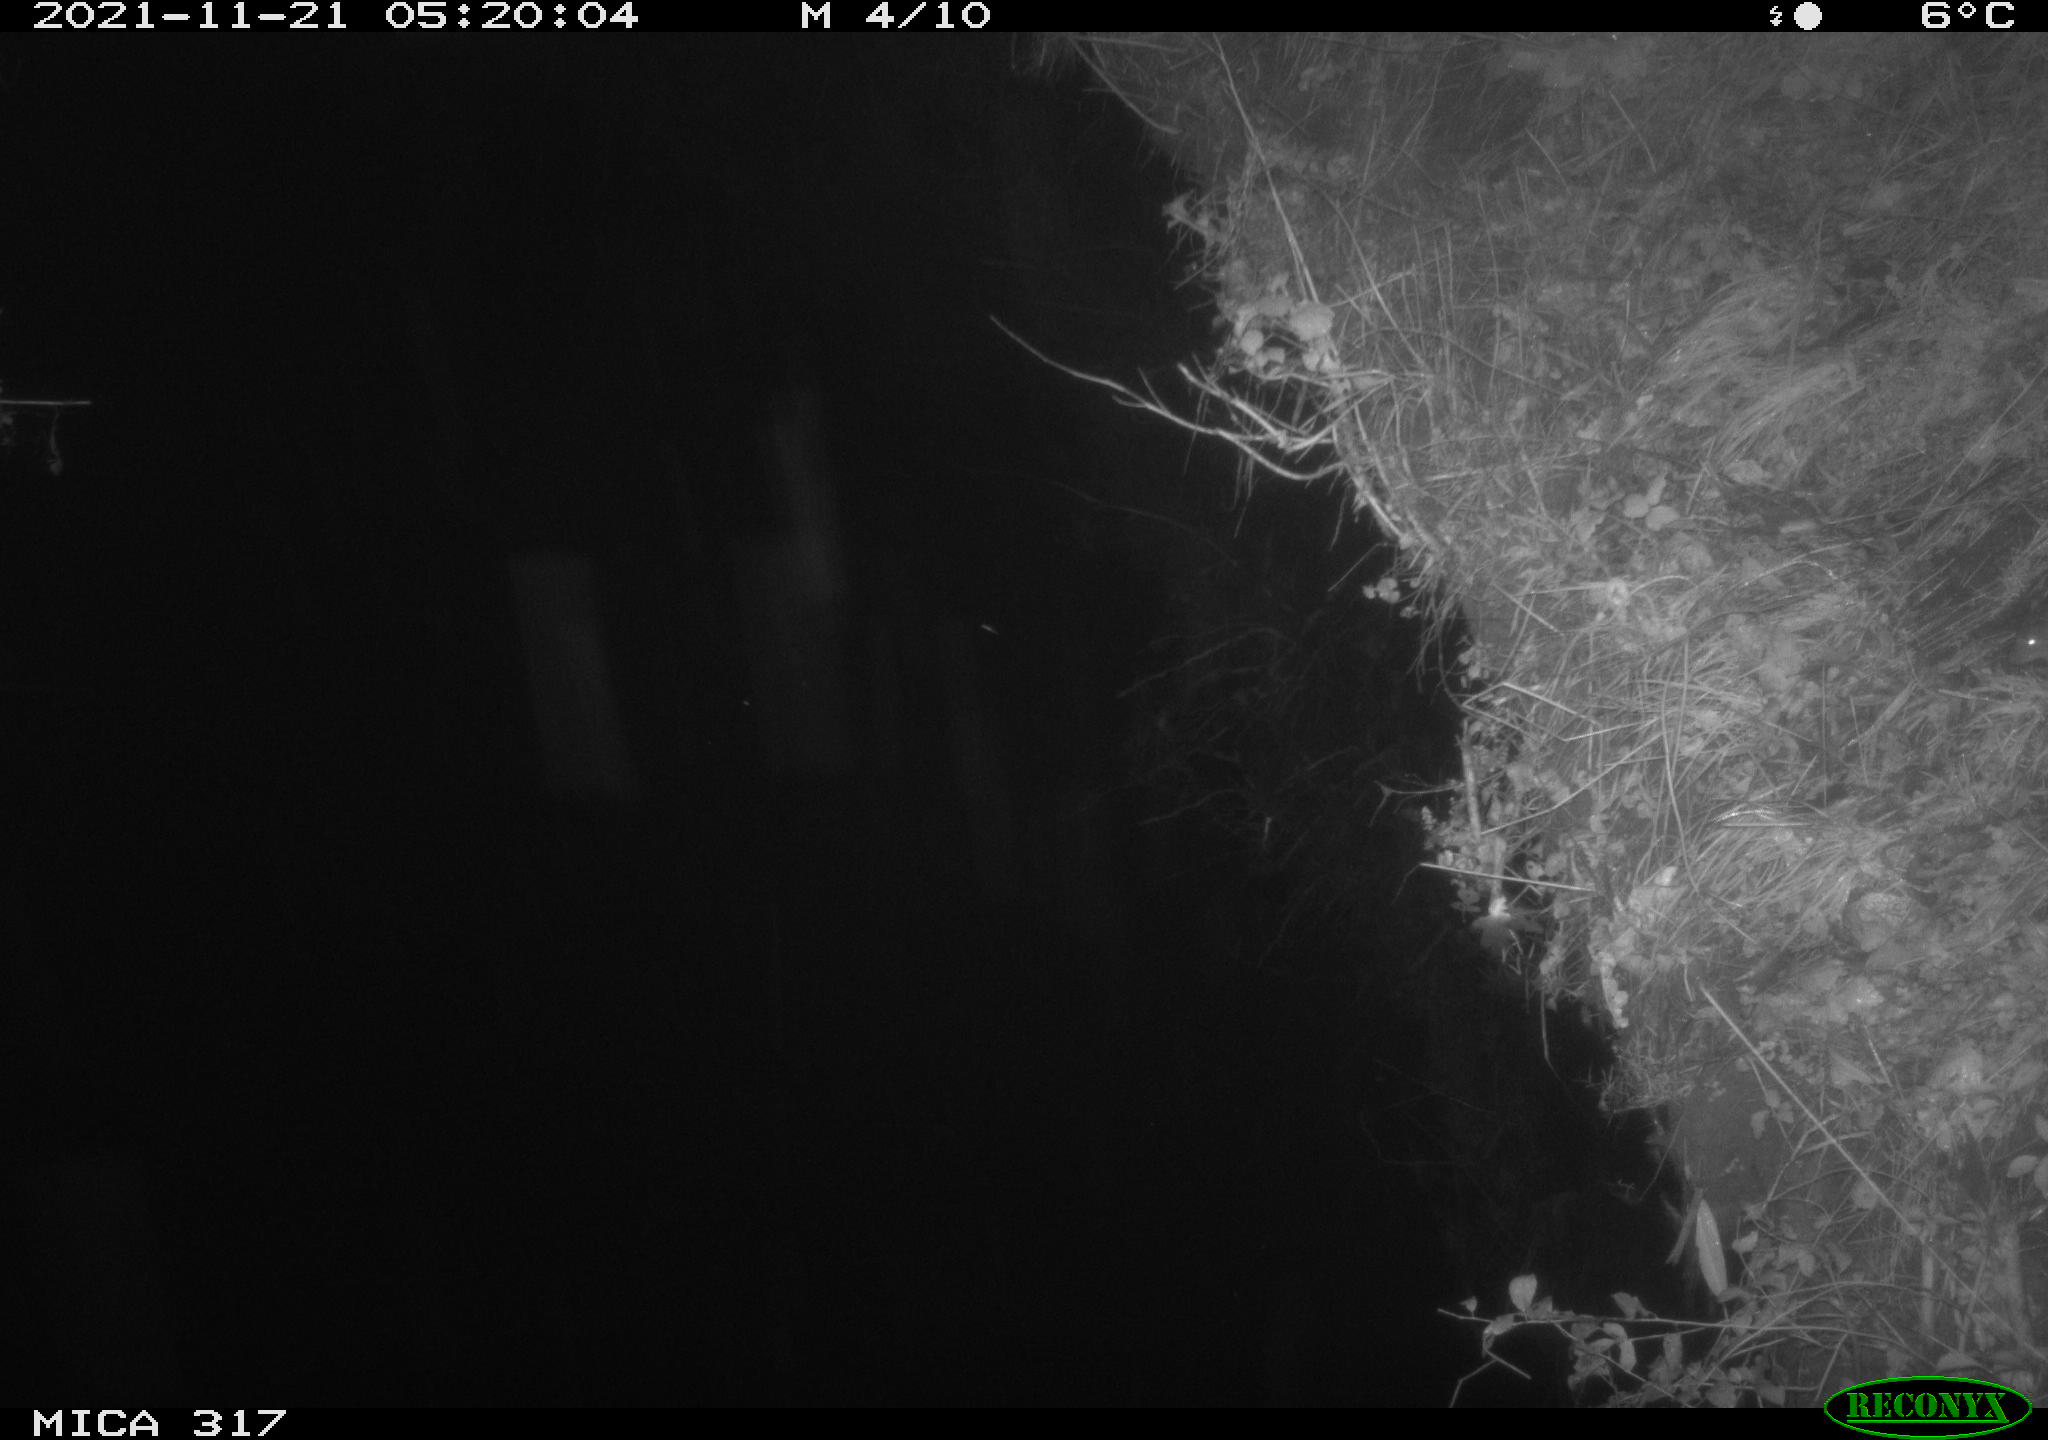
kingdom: Animalia
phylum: Chordata
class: Mammalia
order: Rodentia
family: Muridae
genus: Rattus
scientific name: Rattus norvegicus
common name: Brown rat
